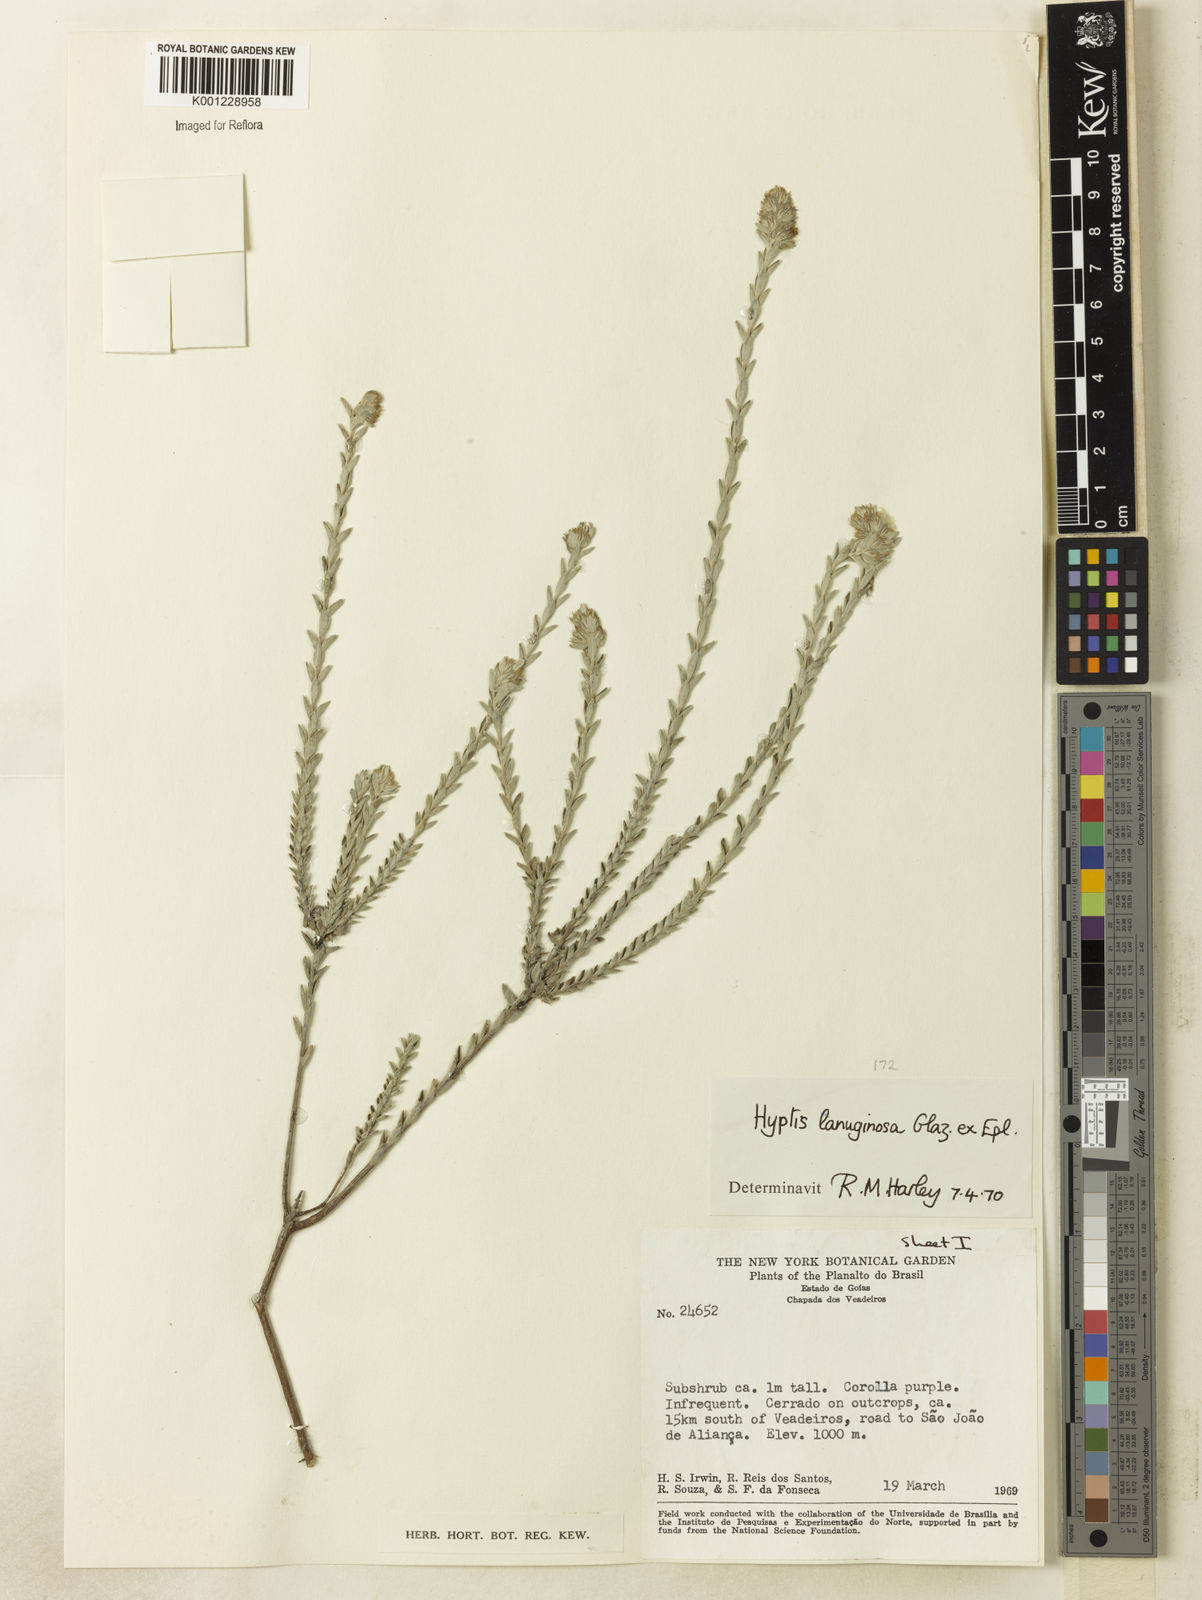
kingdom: Plantae
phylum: Tracheophyta
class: Magnoliopsida
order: Lamiales
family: Lamiaceae
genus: Hyptis
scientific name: Hyptis lanuginosa
